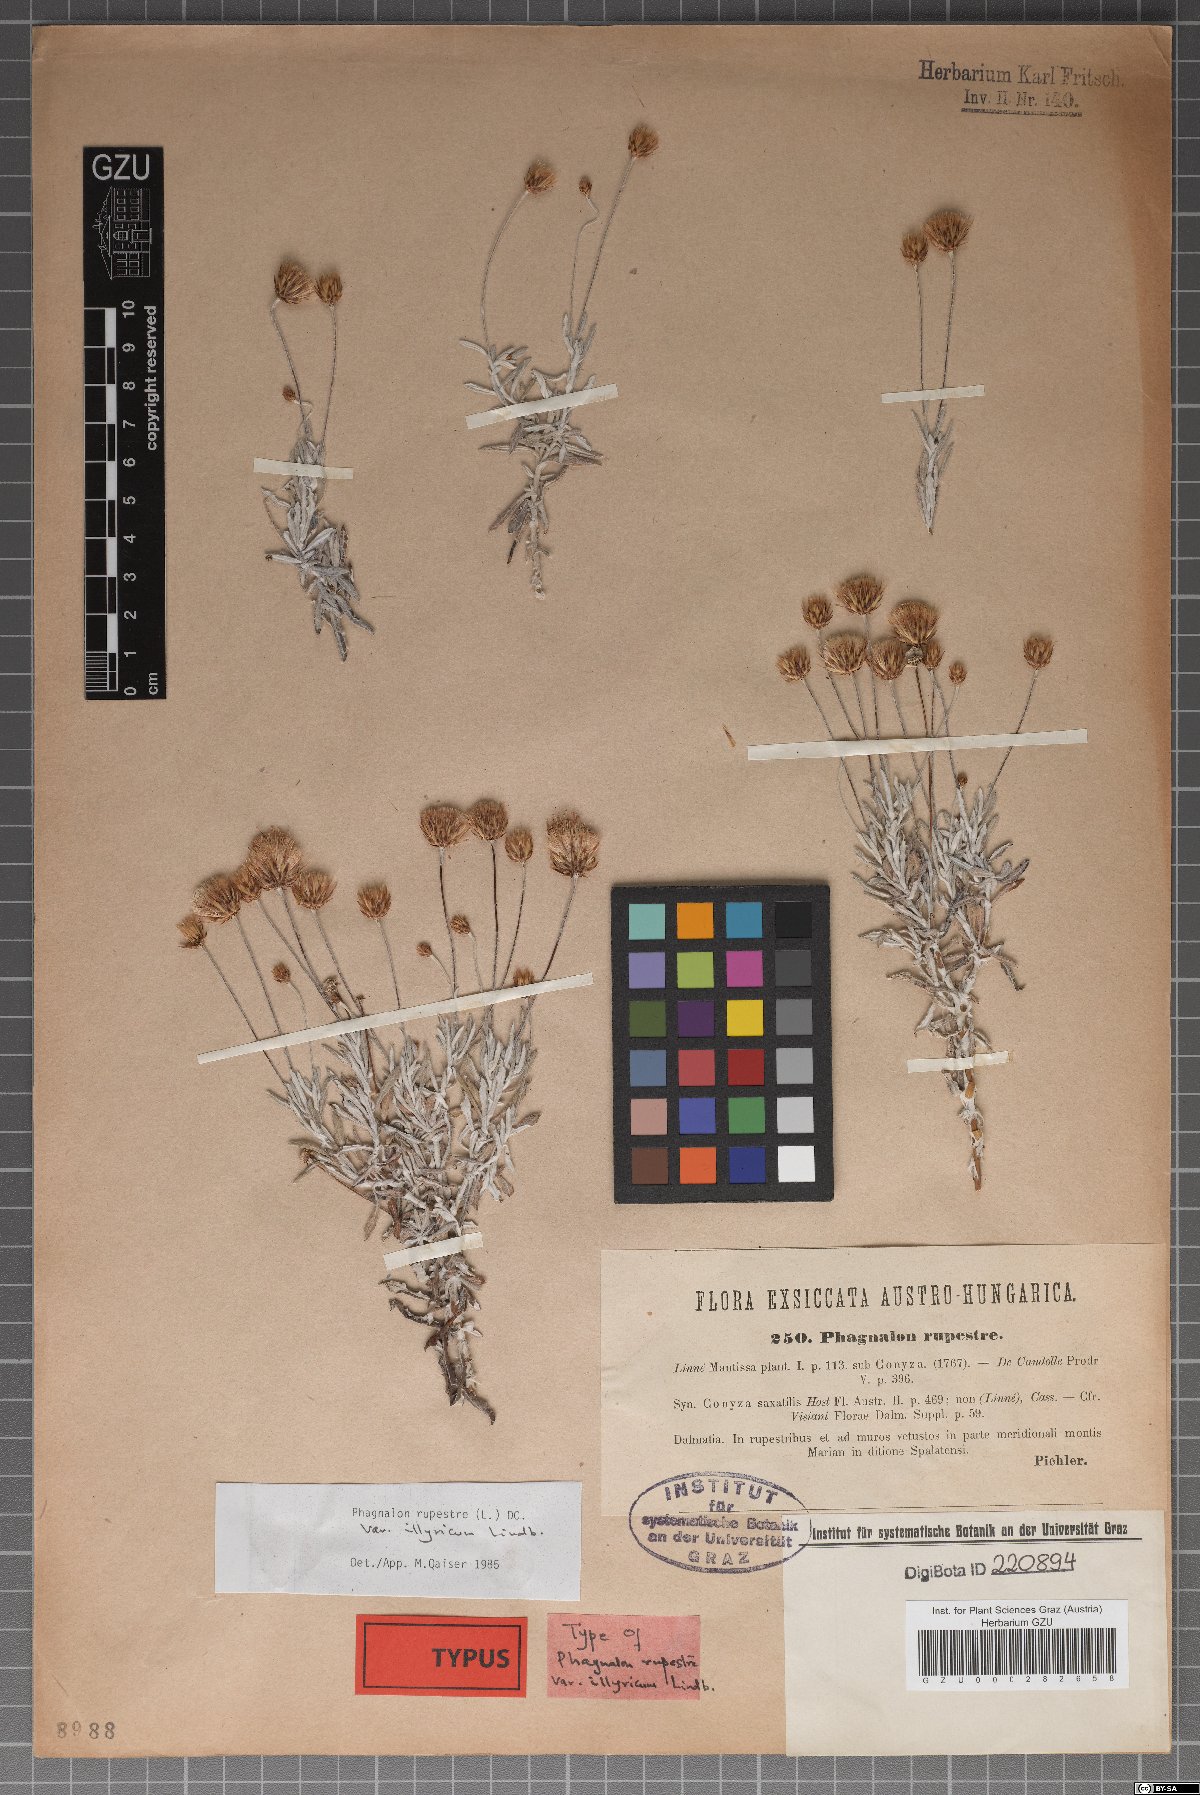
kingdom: Plantae
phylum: Tracheophyta
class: Magnoliopsida
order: Asterales
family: Asteraceae
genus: Phagnalon
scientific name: Phagnalon rupestre
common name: Rock phagnalon
